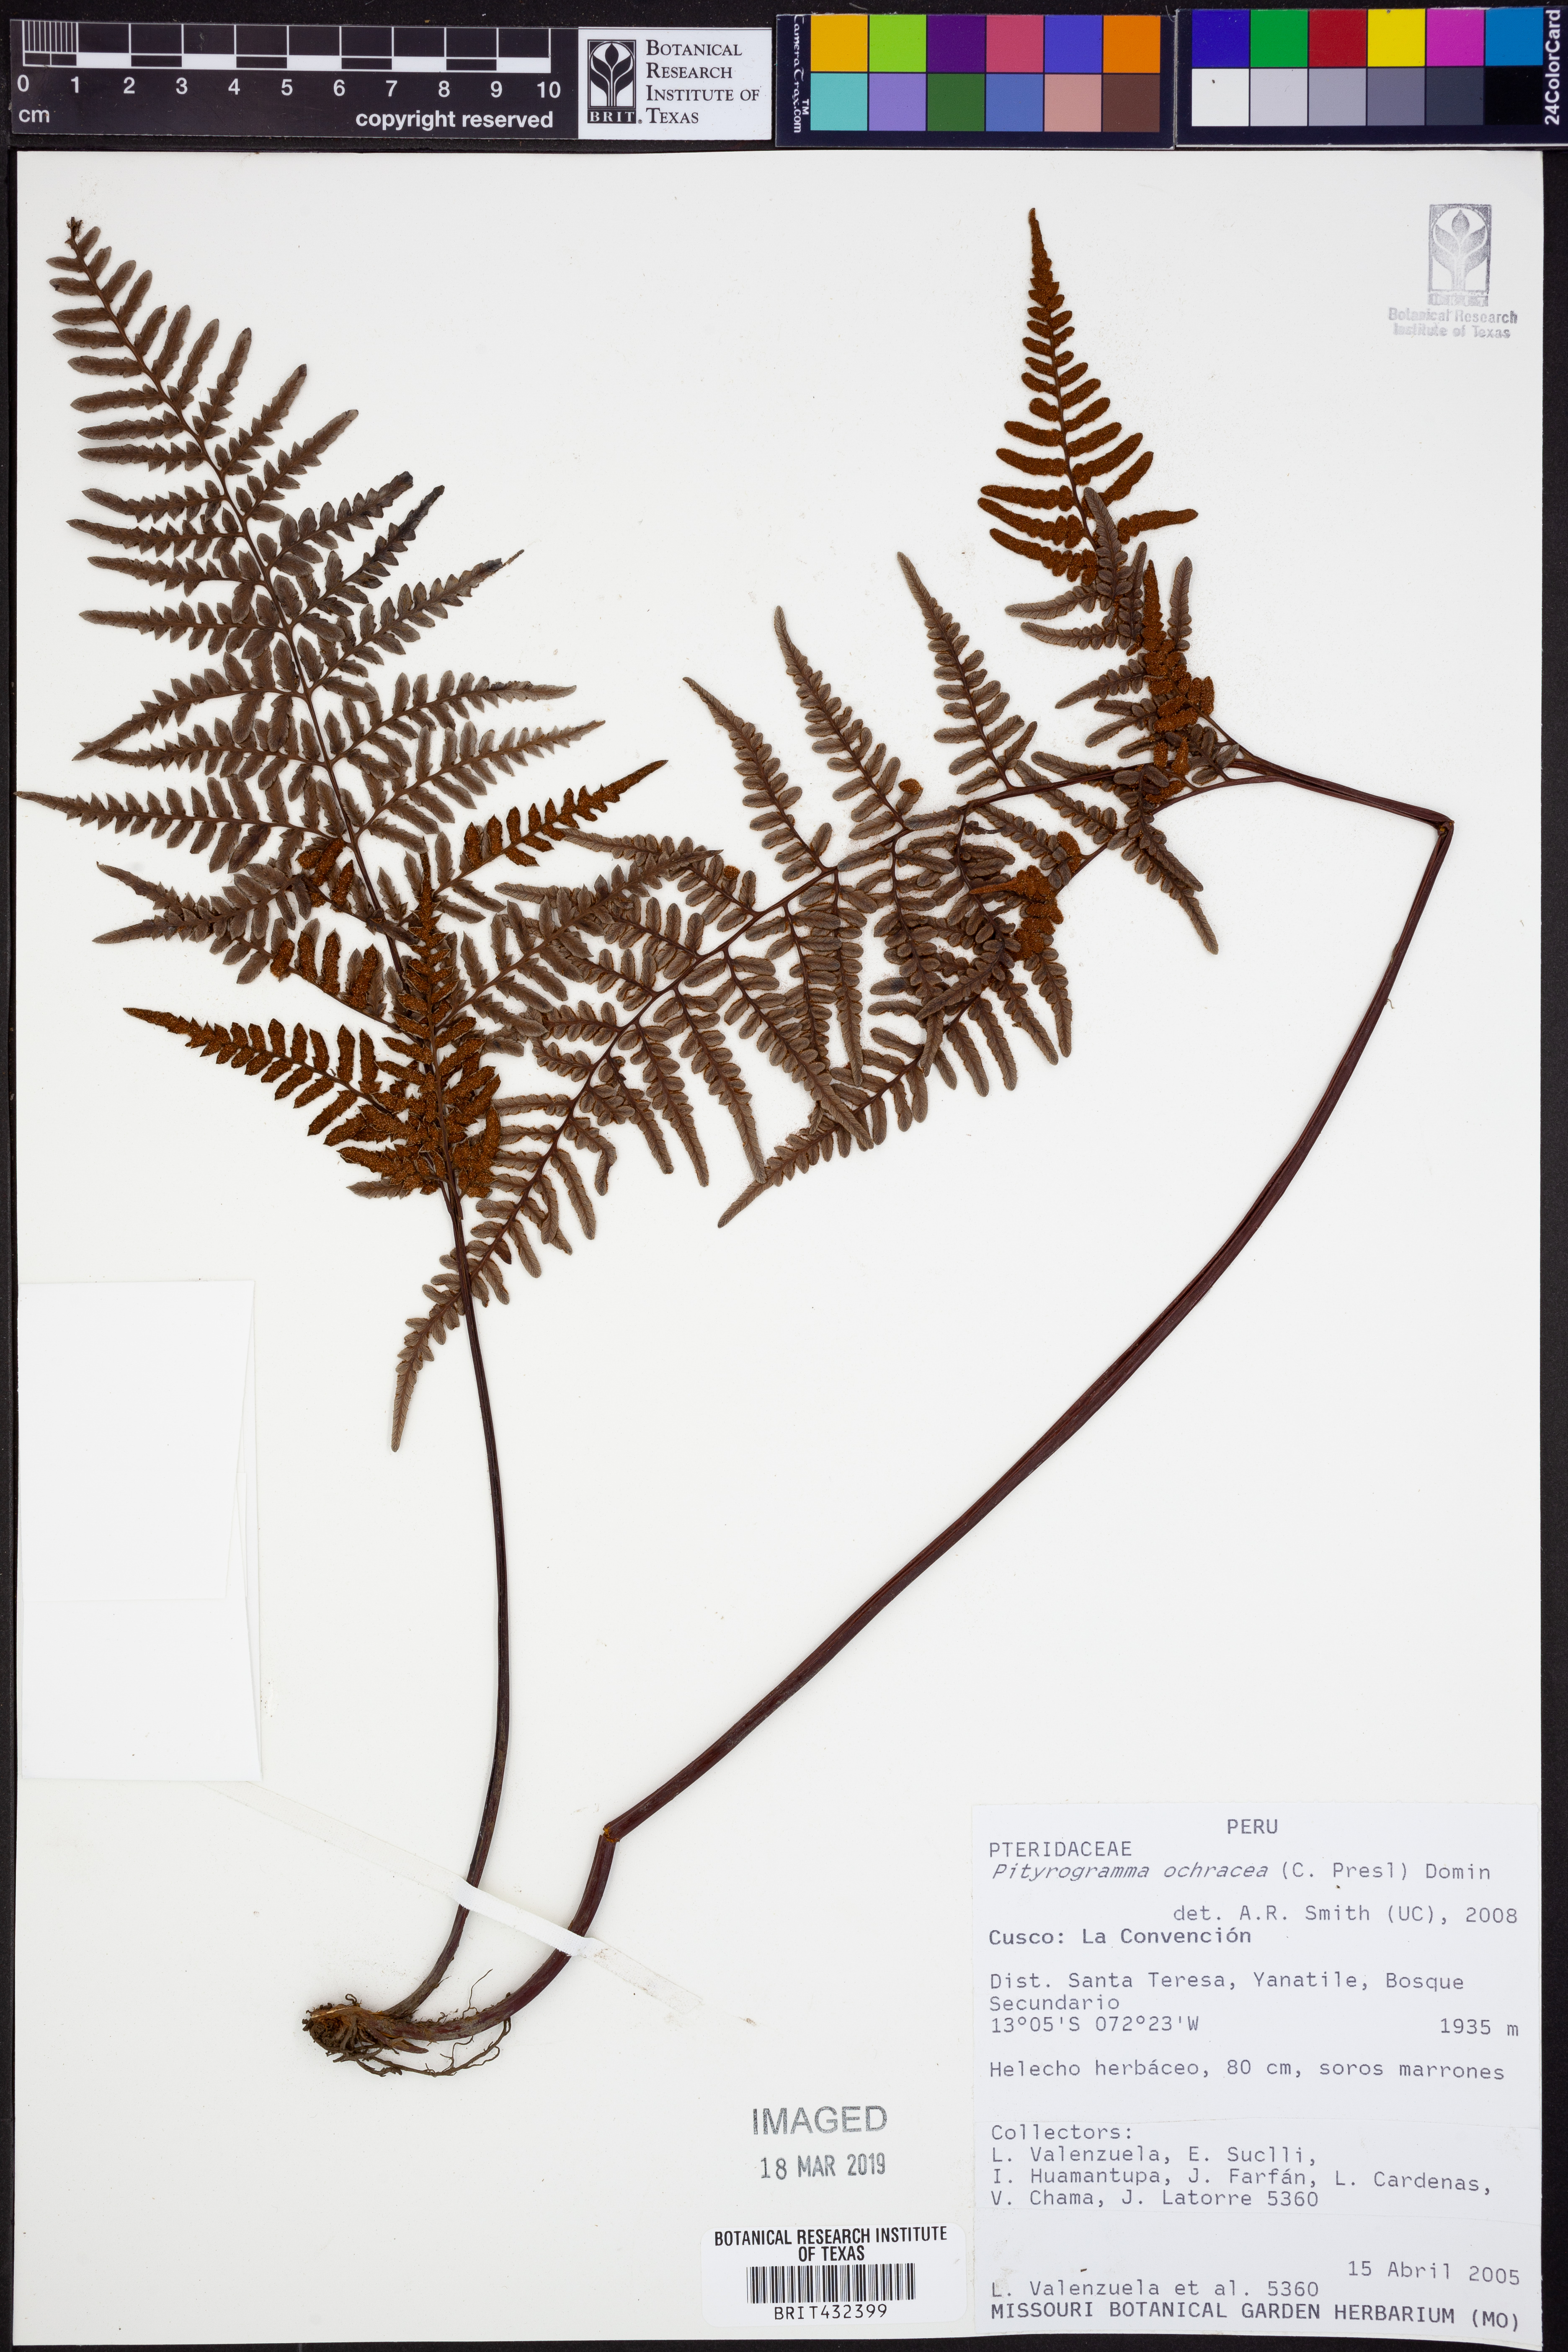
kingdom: Plantae
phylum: Tracheophyta
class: Polypodiopsida
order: Polypodiales
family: Pteridaceae
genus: Pityrogramma
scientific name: Pityrogramma ochracea
